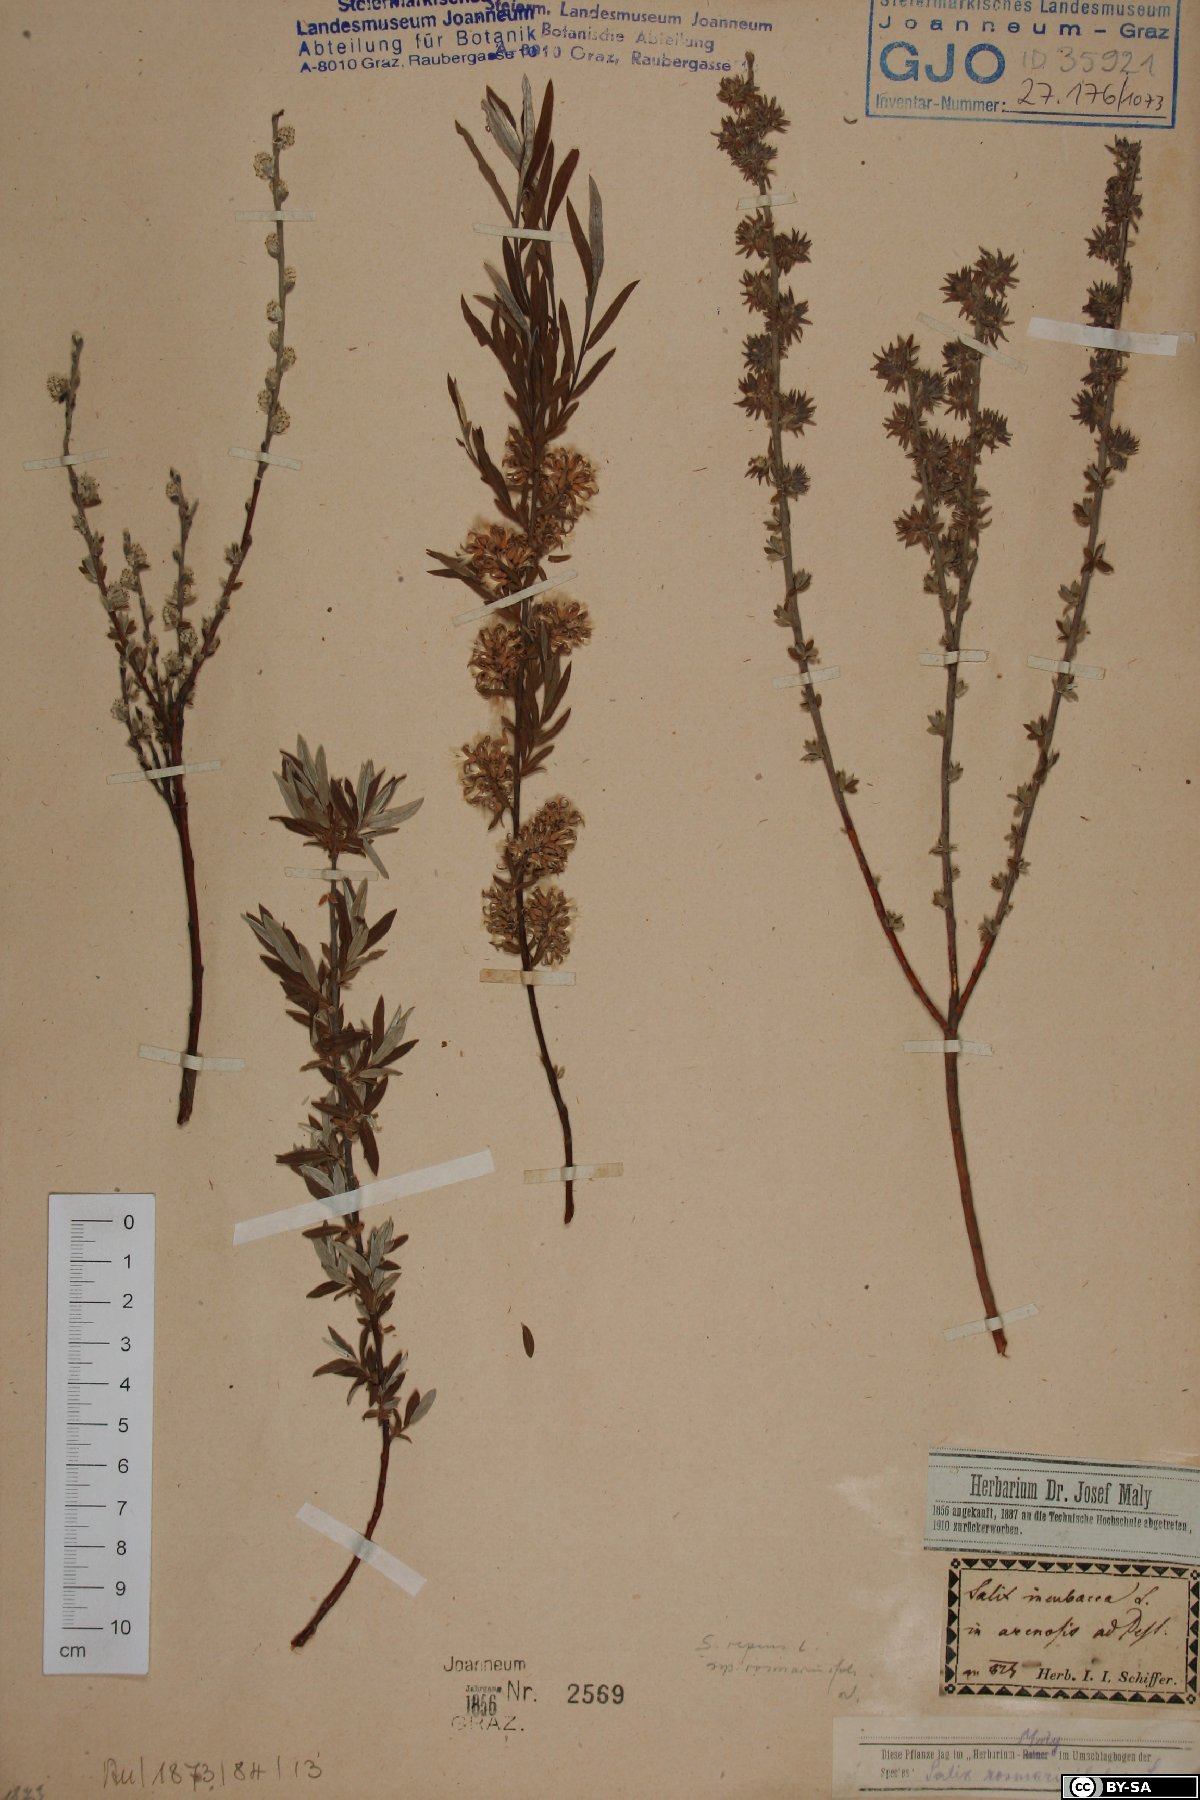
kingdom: Plantae
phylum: Tracheophyta
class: Magnoliopsida
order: Malpighiales
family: Salicaceae
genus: Salix
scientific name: Salix repens
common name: Creeping willow
